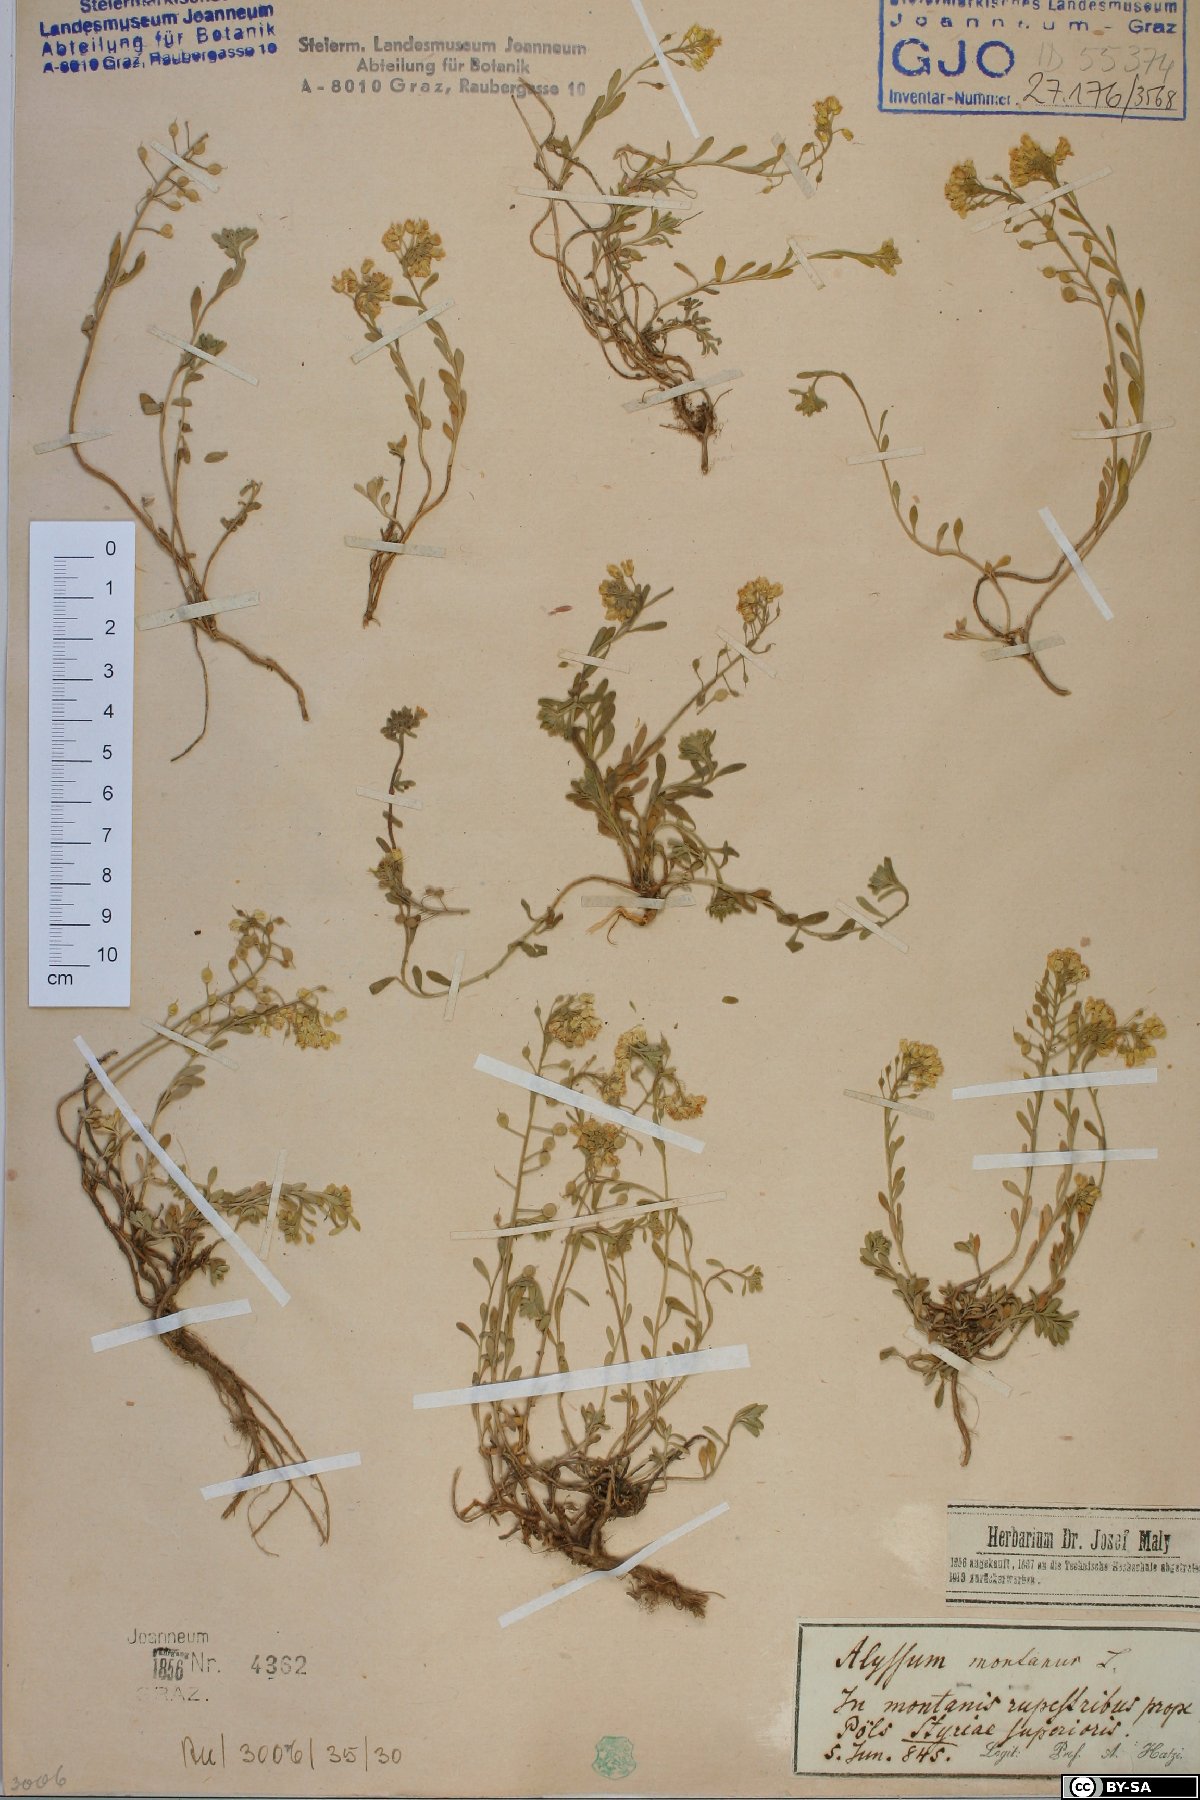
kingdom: Plantae
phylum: Tracheophyta
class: Magnoliopsida
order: Brassicales
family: Brassicaceae
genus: Alyssum
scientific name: Alyssum montanum
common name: Mountain alison
